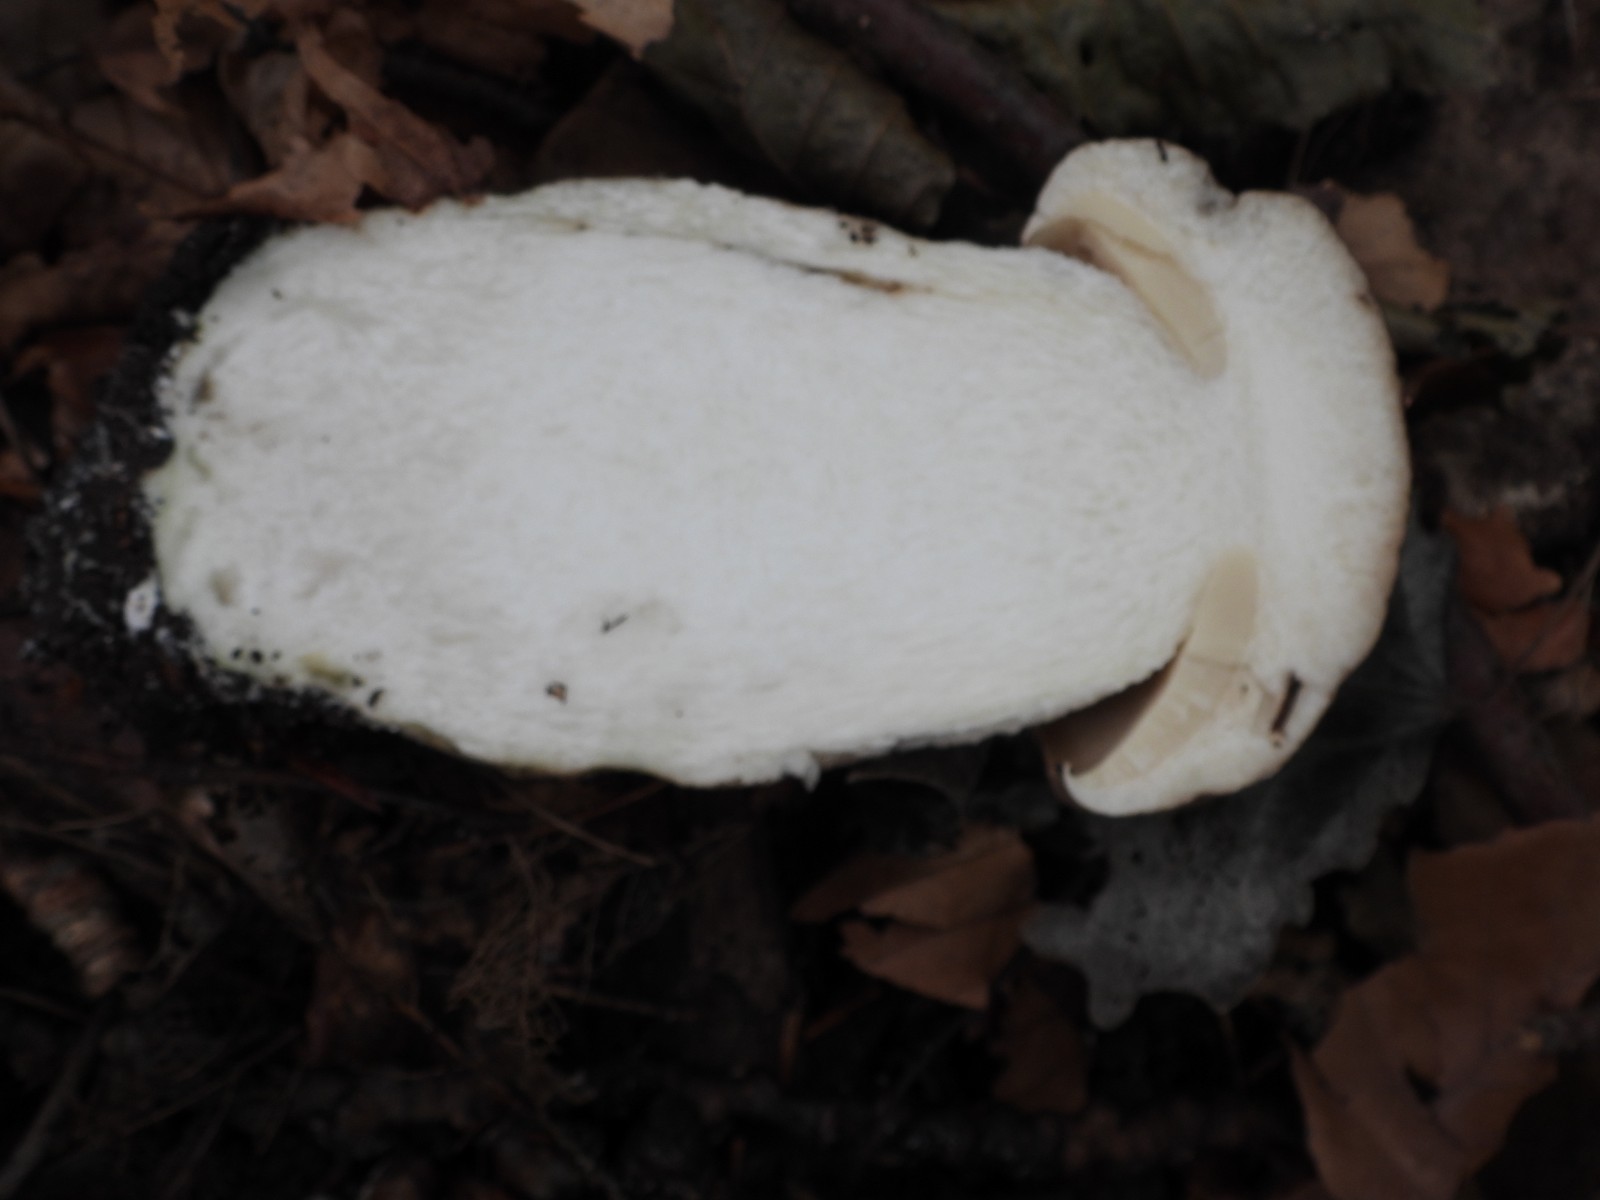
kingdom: Fungi
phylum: Basidiomycota
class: Agaricomycetes
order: Boletales
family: Boletaceae
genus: Leccinum
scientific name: Leccinum duriusculum
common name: poppel-skælrørhat
